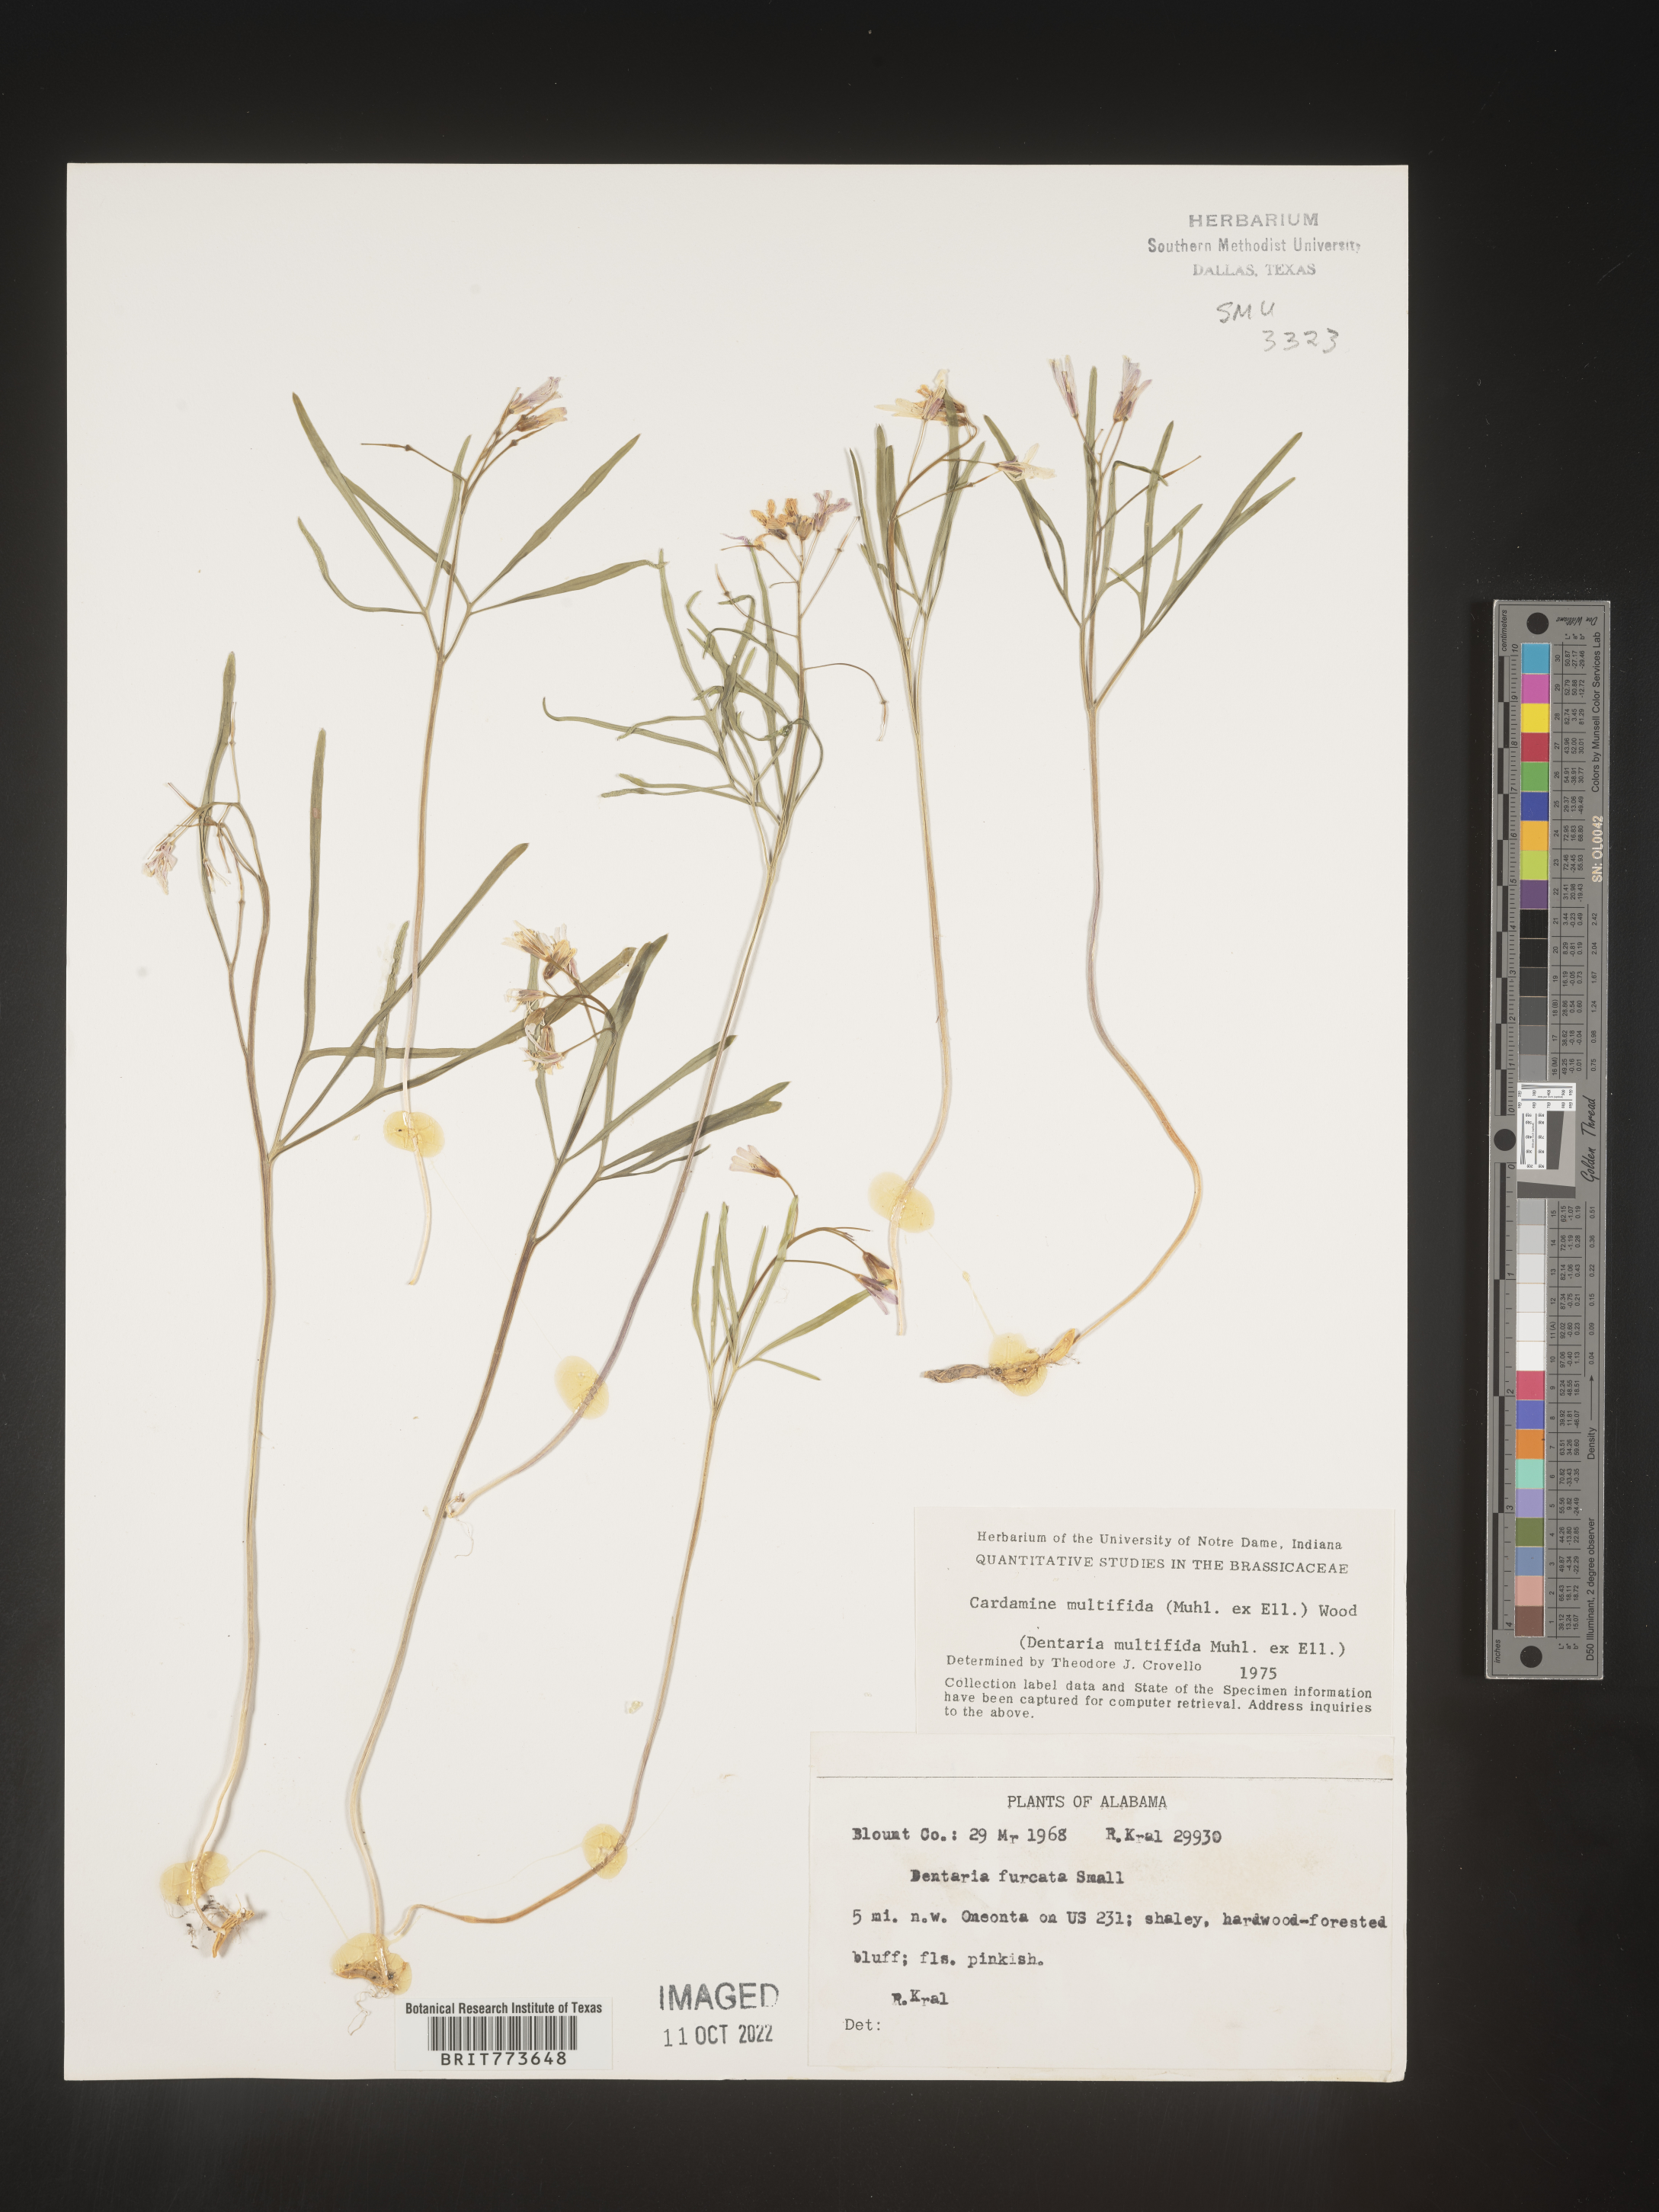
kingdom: Plantae
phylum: Tracheophyta
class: Magnoliopsida
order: Brassicales
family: Brassicaceae
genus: Cardamine
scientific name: Cardamine
